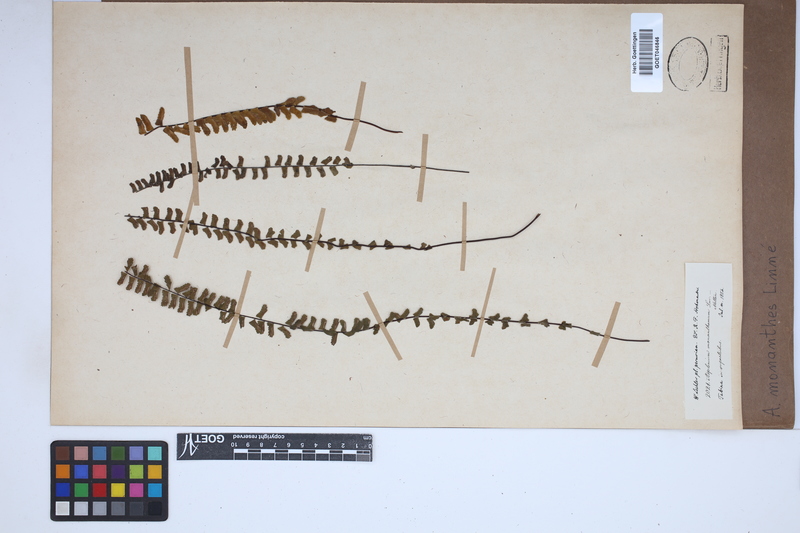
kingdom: Plantae
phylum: Tracheophyta
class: Polypodiopsida
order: Polypodiales
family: Aspleniaceae
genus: Asplenium
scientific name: Asplenium monanthes
